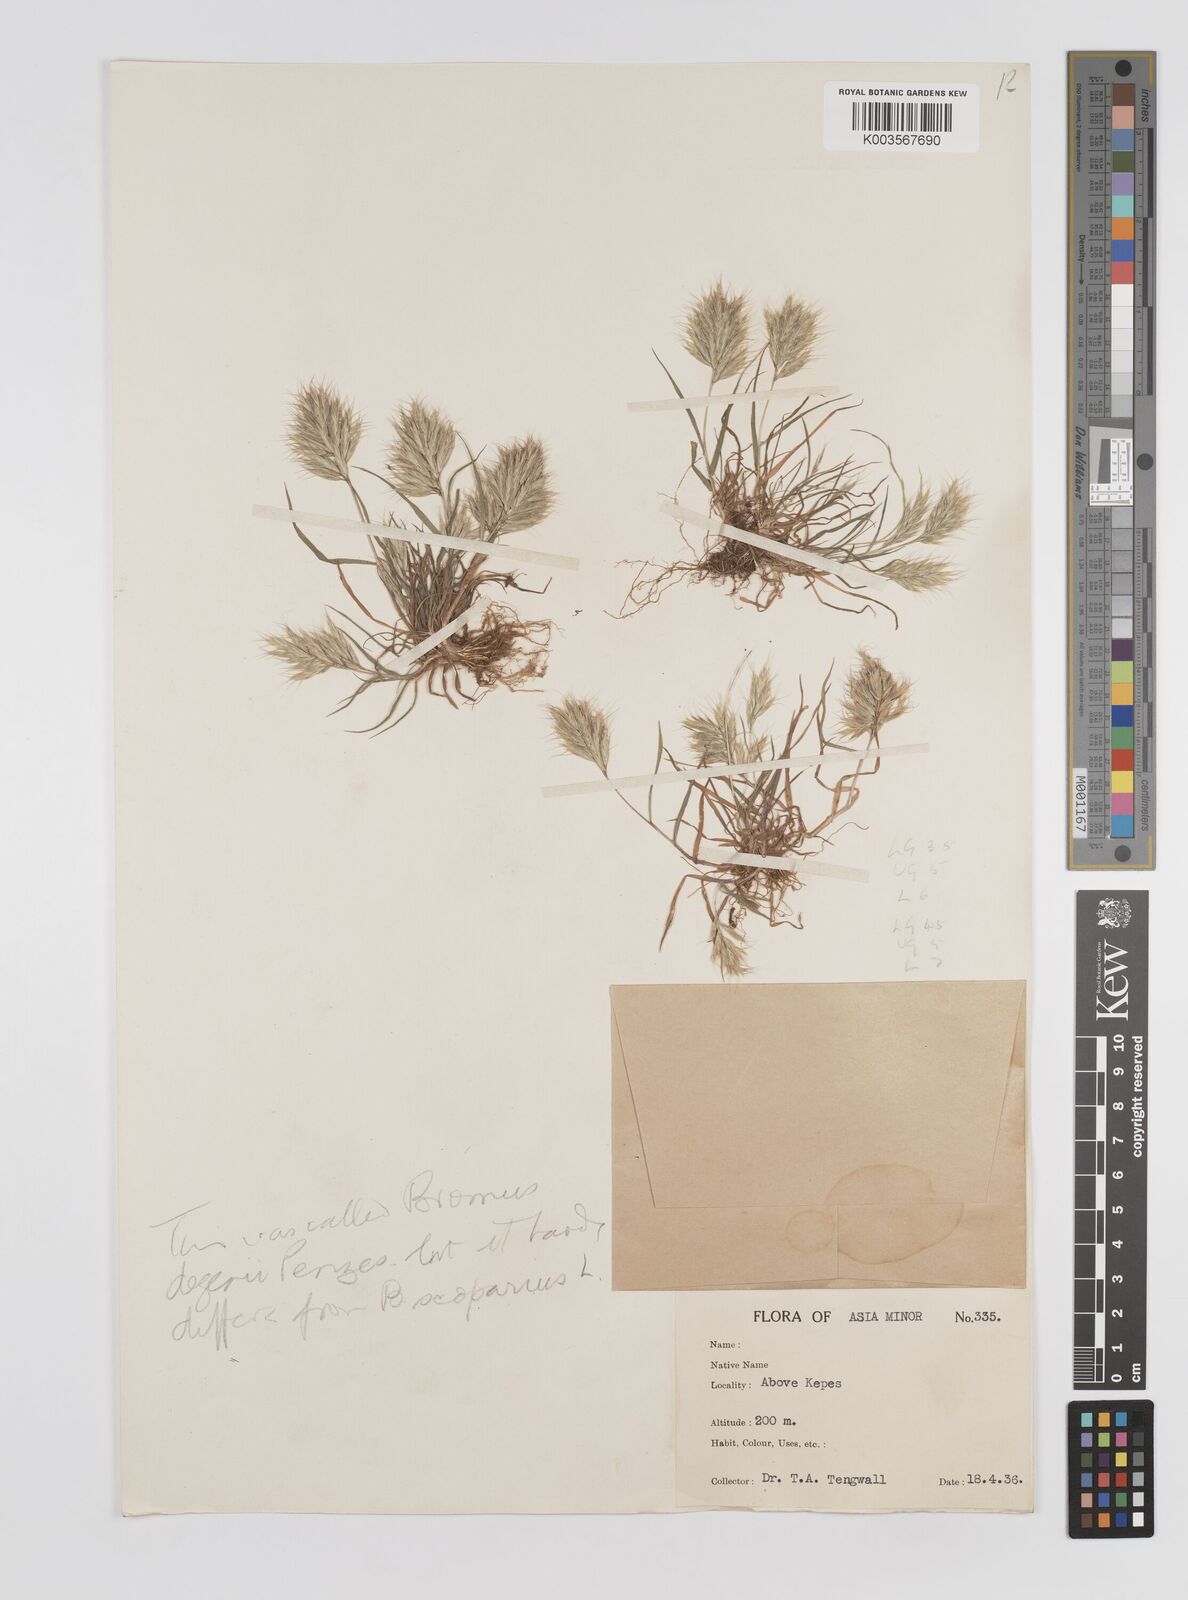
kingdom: Plantae
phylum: Tracheophyta
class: Liliopsida
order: Poales
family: Poaceae
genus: Bromus
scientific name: Bromus
